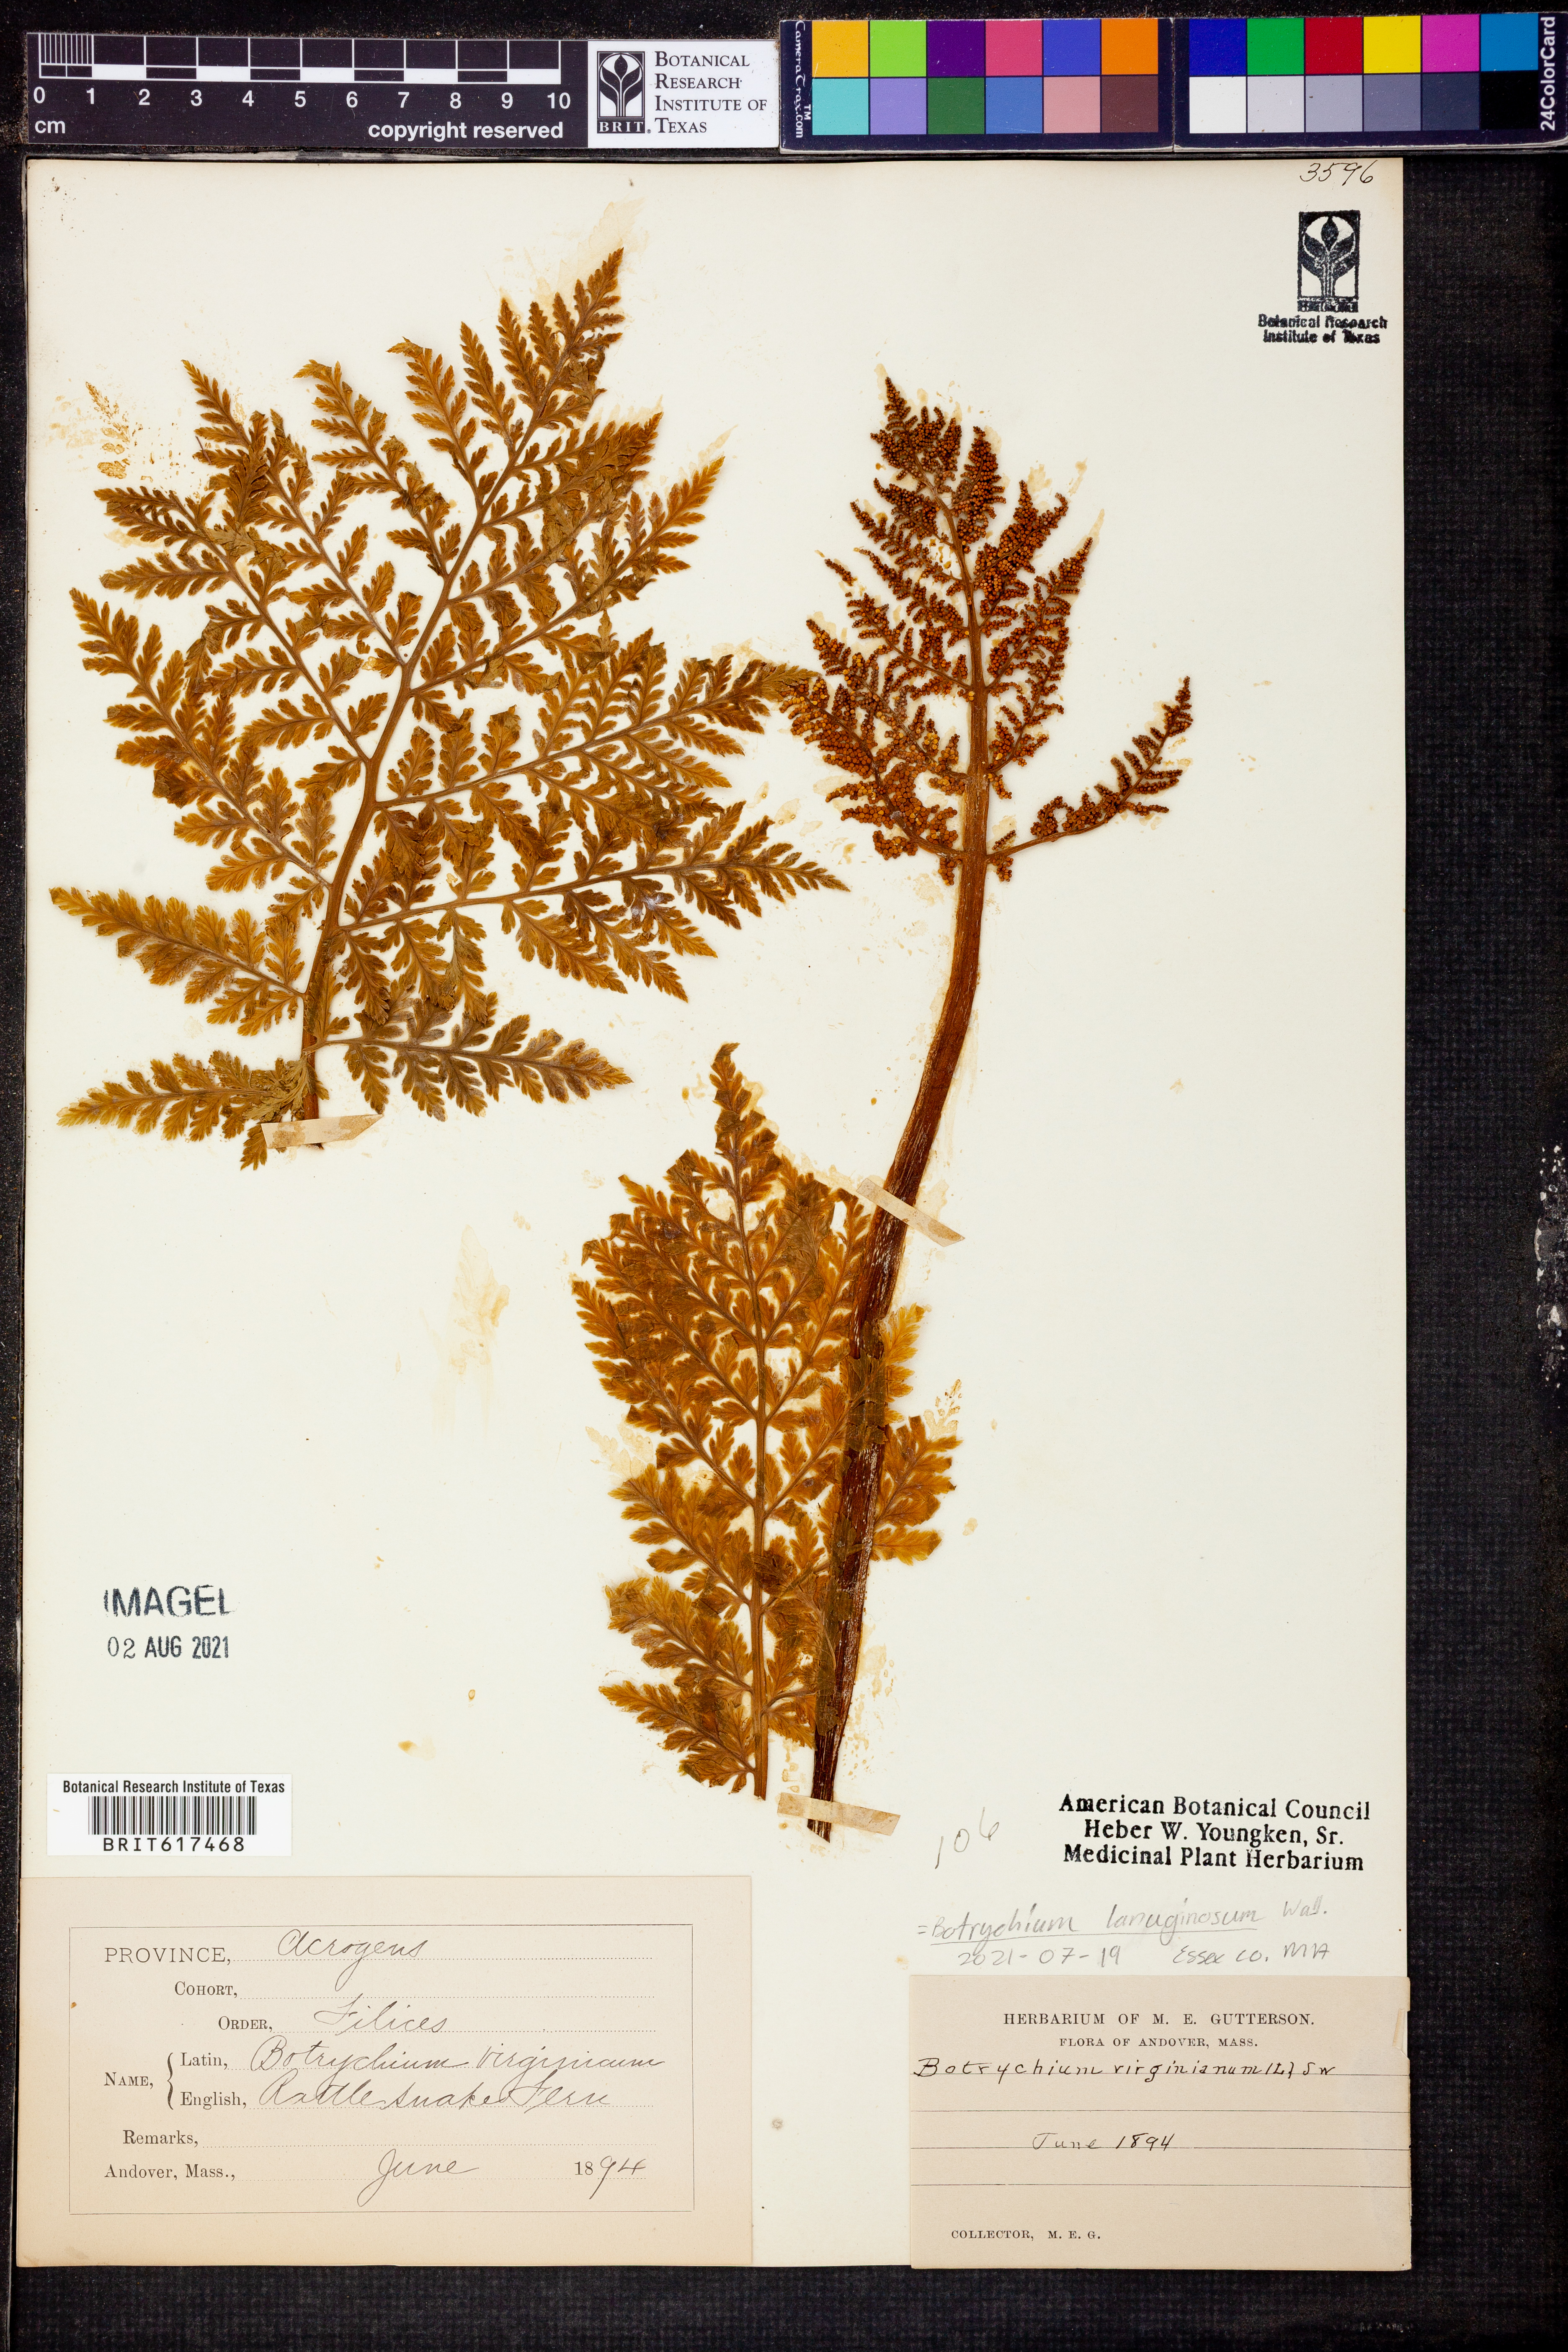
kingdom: Plantae
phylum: Tracheophyta
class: Polypodiopsida
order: Ophioglossales
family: Ophioglossaceae
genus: Japanobotrychum
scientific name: Japanobotrychum lanuginosum
